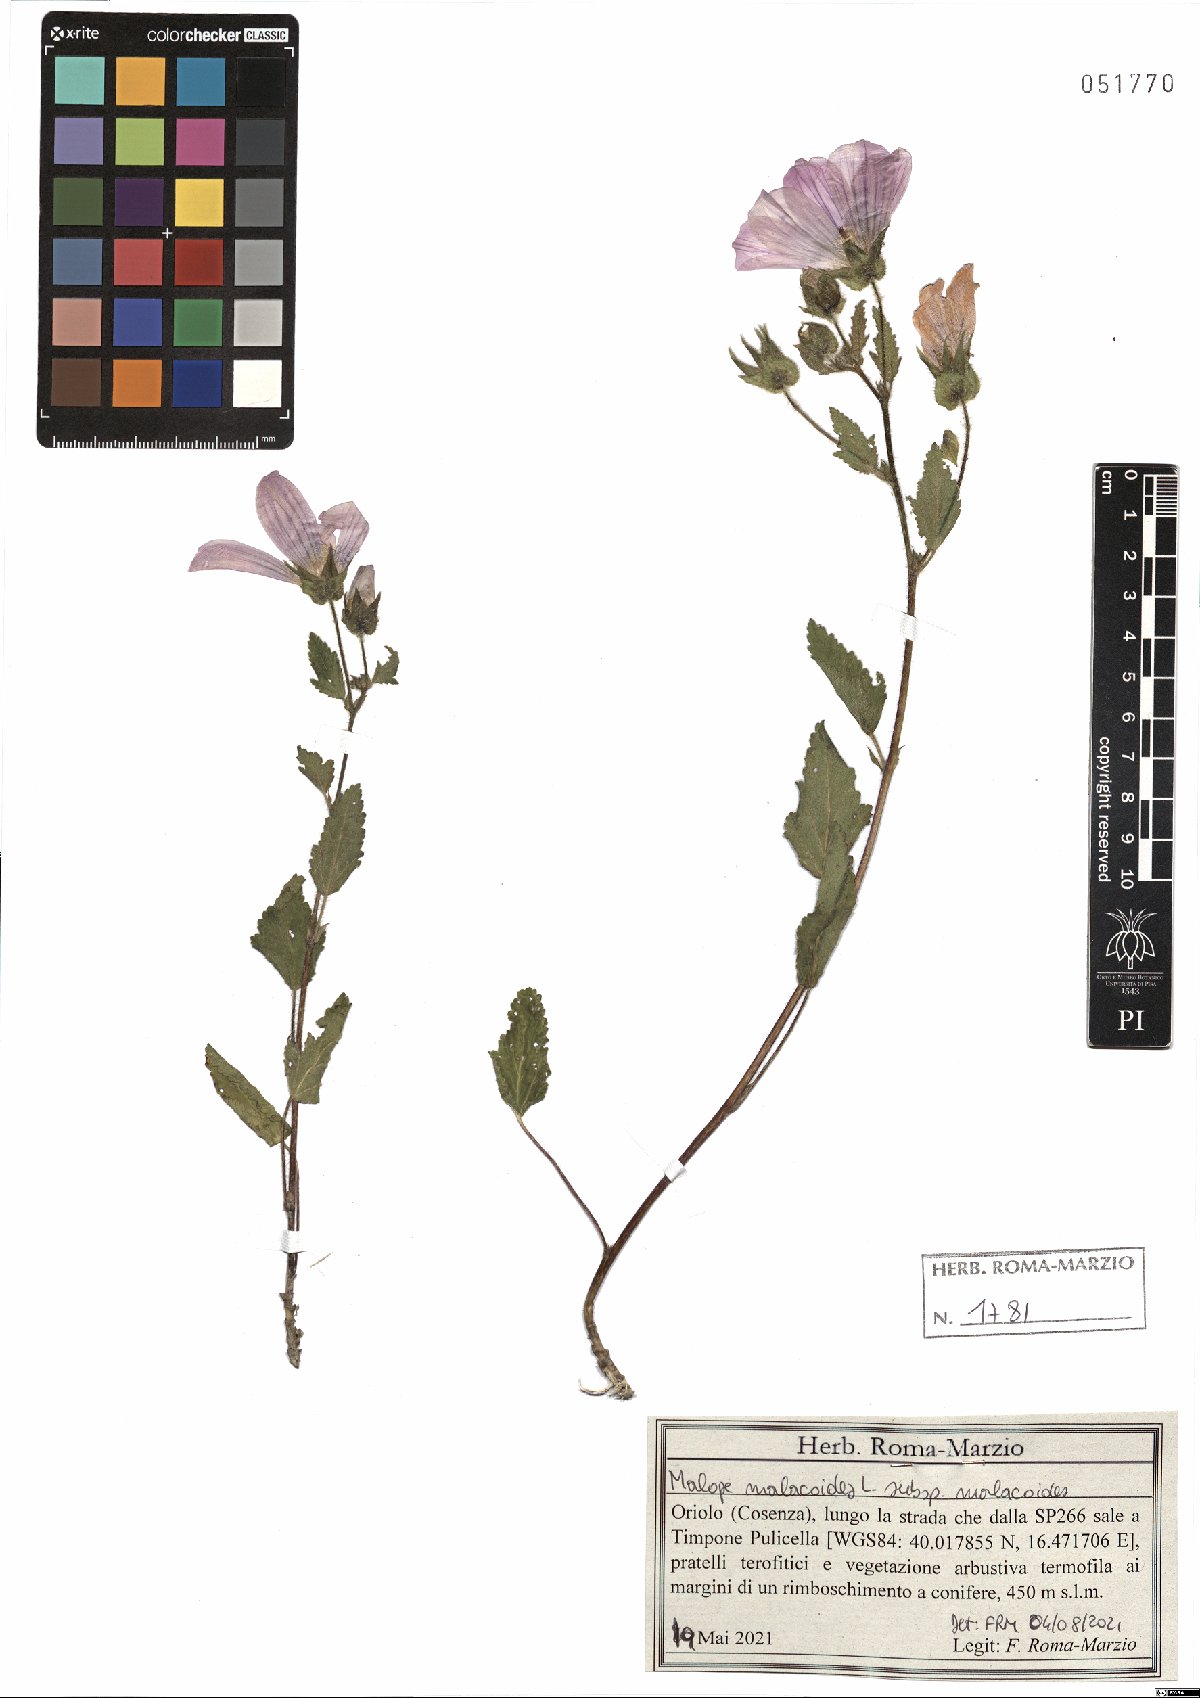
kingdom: Plantae
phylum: Tracheophyta
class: Magnoliopsida
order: Malvales
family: Malvaceae
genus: Malope
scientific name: Malope malacoides
